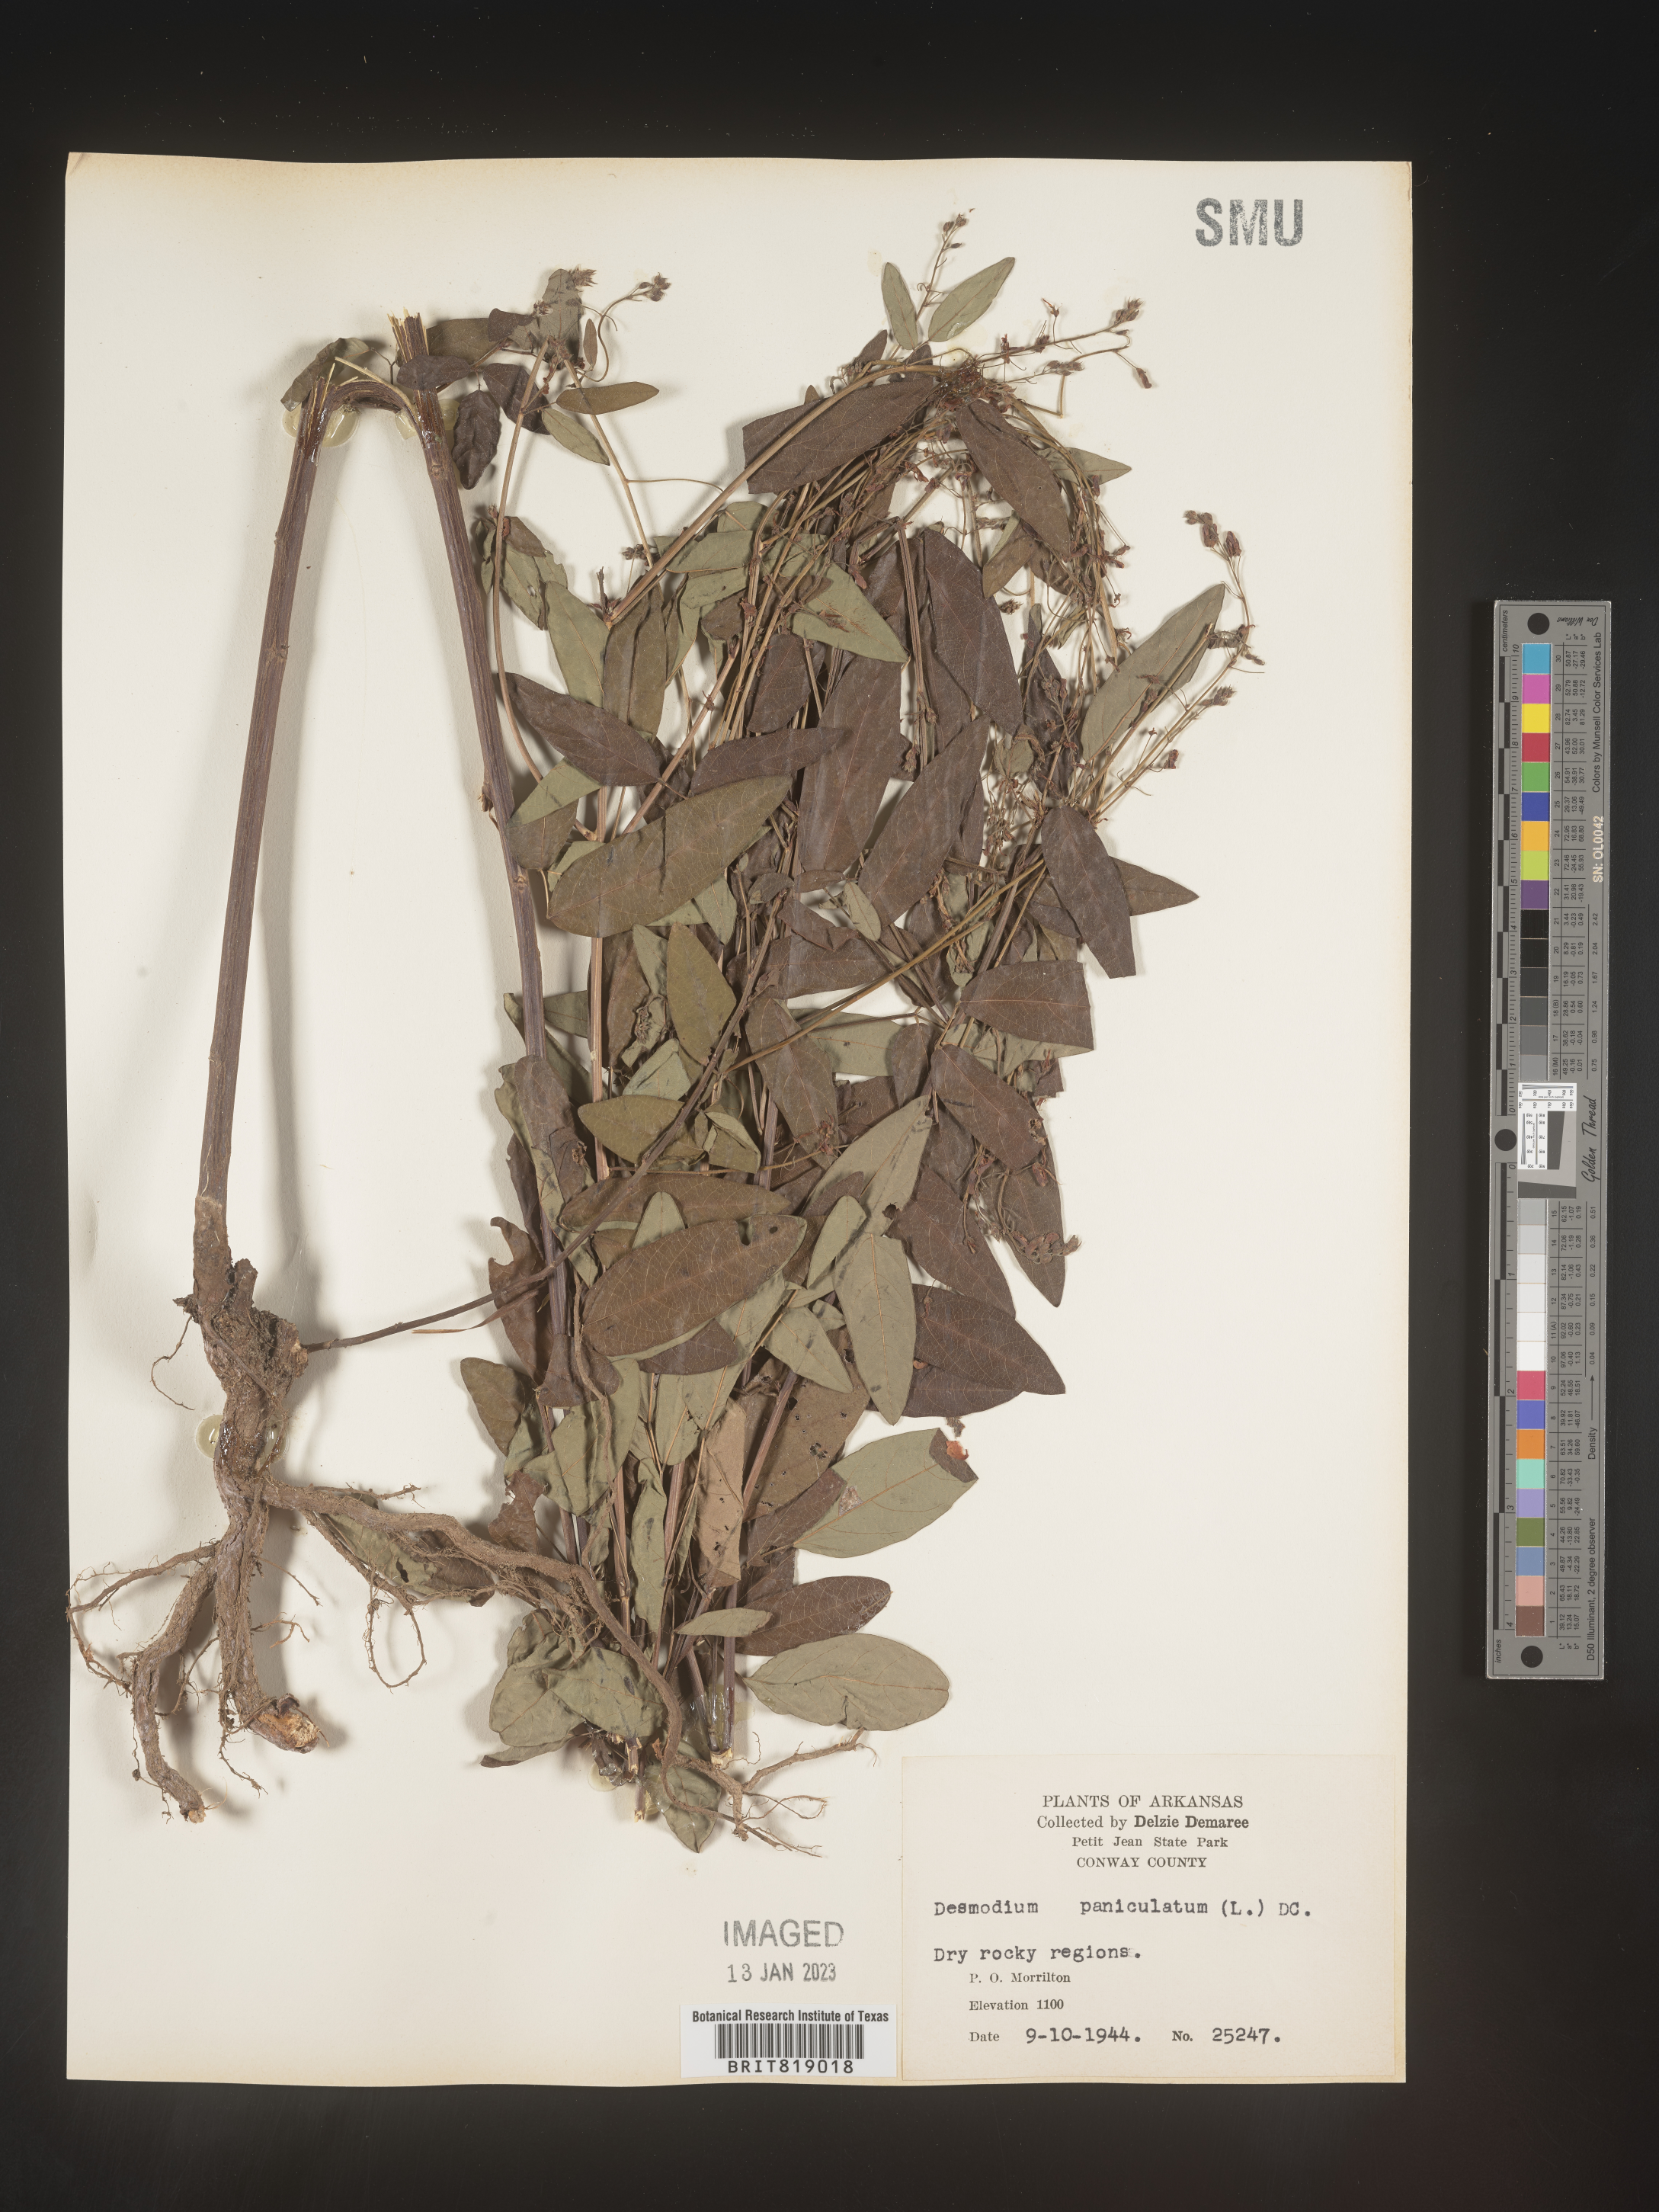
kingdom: Plantae
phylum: Tracheophyta
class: Magnoliopsida
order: Fabales
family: Fabaceae
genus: Desmodium
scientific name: Desmodium paniculatum
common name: Panicled tick-clover
